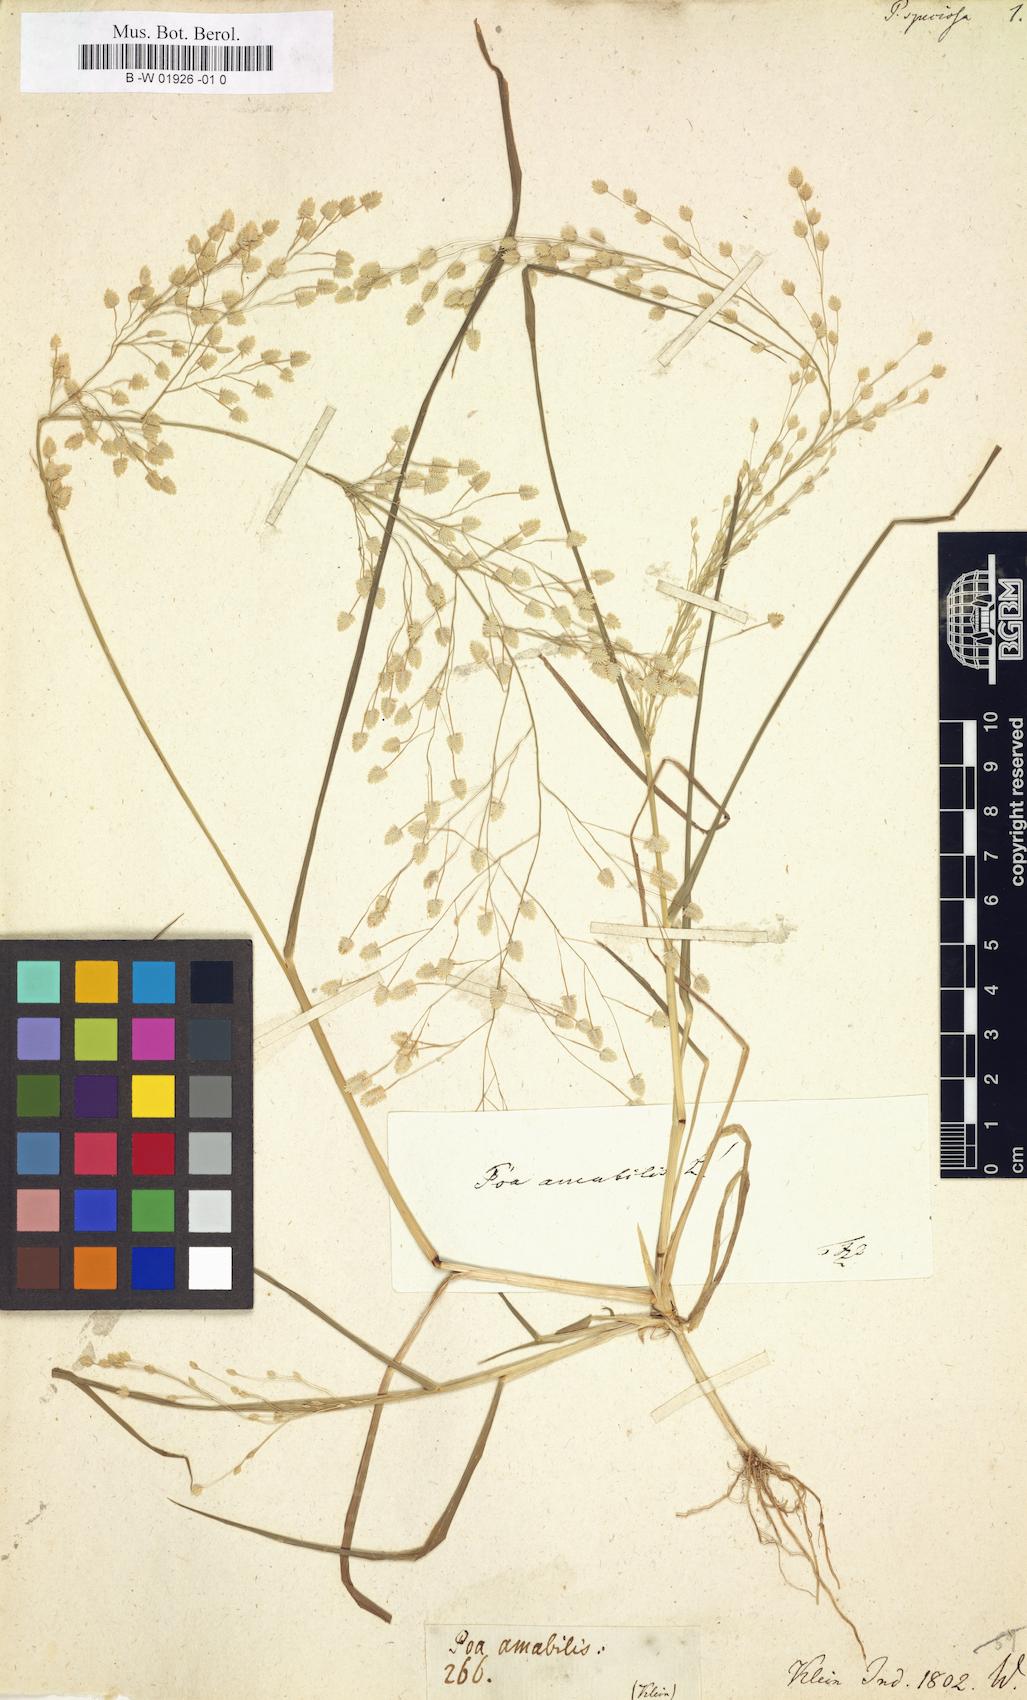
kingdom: Plantae
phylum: Tracheophyta
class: Liliopsida
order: Poales
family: Poaceae
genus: Eragrostis
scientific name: Eragrostis
